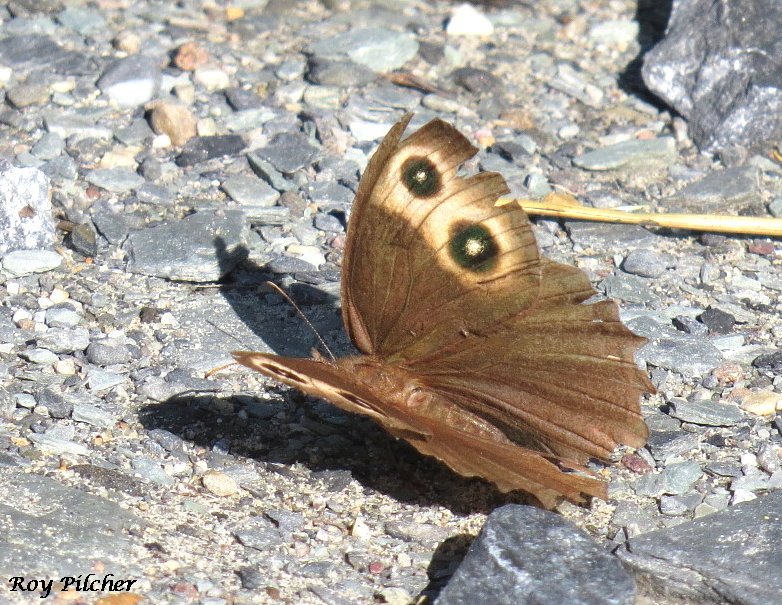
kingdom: Animalia
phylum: Arthropoda
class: Insecta
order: Lepidoptera
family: Nymphalidae
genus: Cercyonis
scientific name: Cercyonis pegala
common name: Common Wood-Nymph
